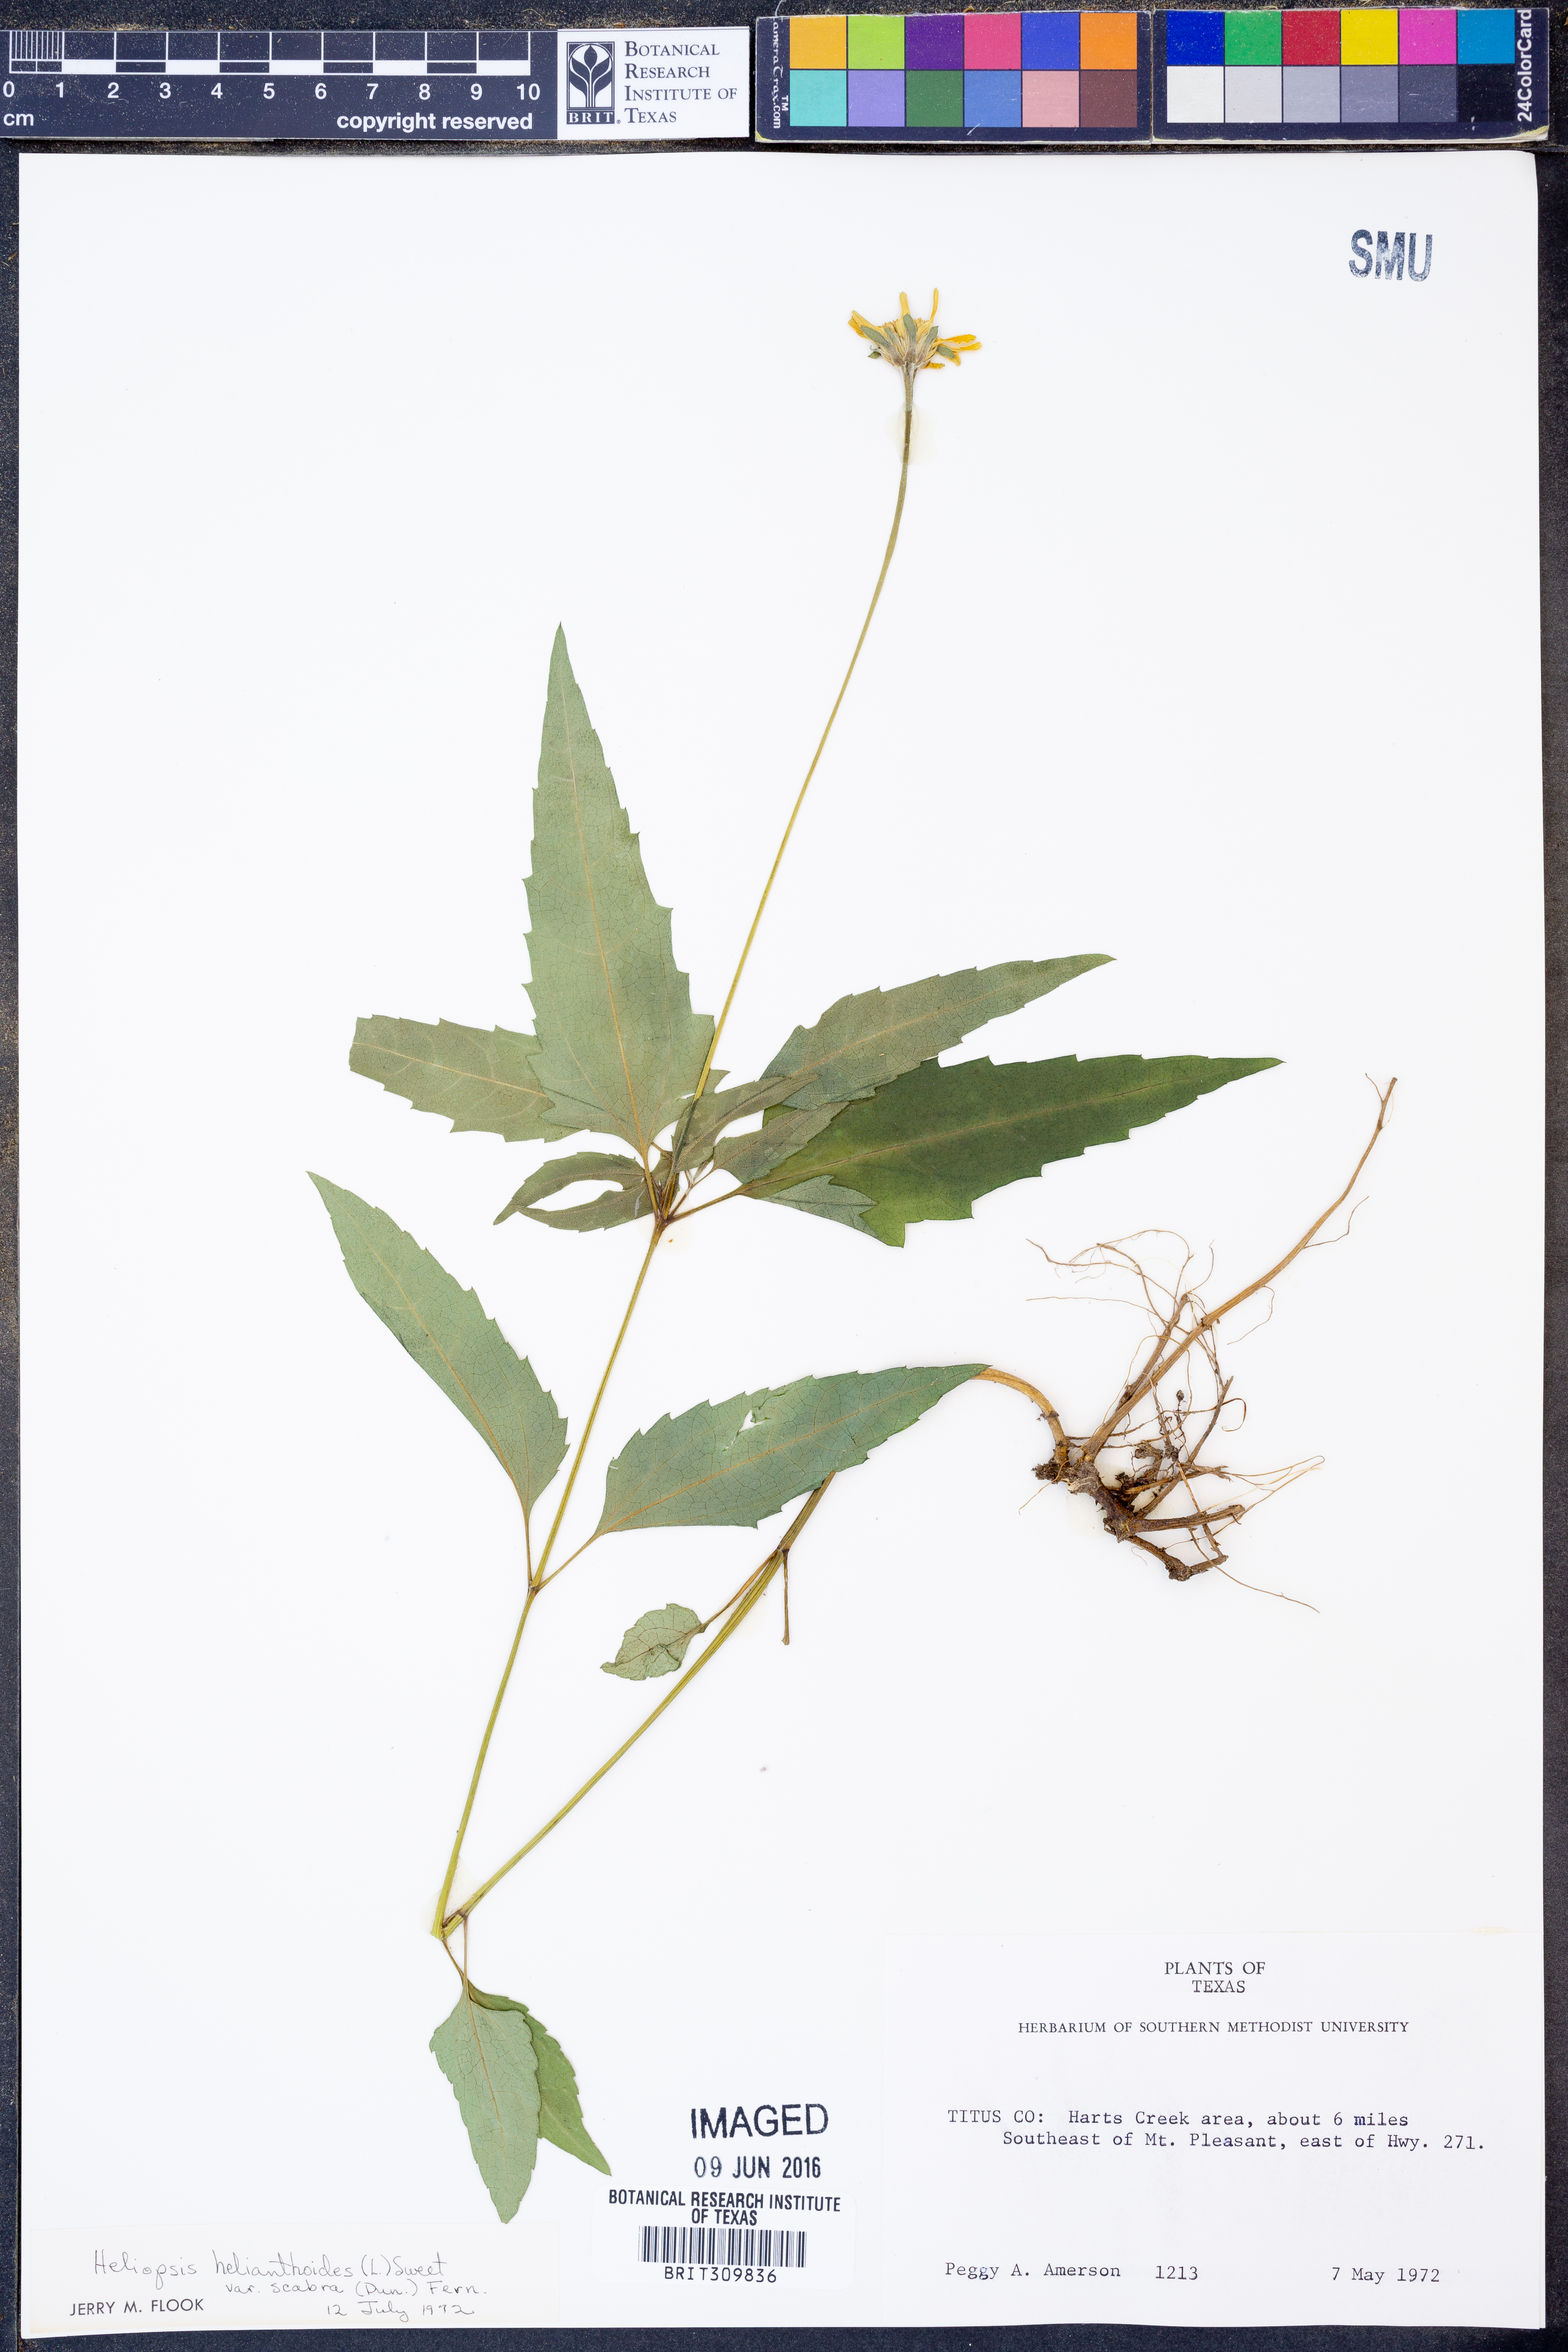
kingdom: Plantae
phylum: Tracheophyta
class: Magnoliopsida
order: Asterales
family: Asteraceae
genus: Heliopsis
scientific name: Heliopsis helianthoides
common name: False sunflower
